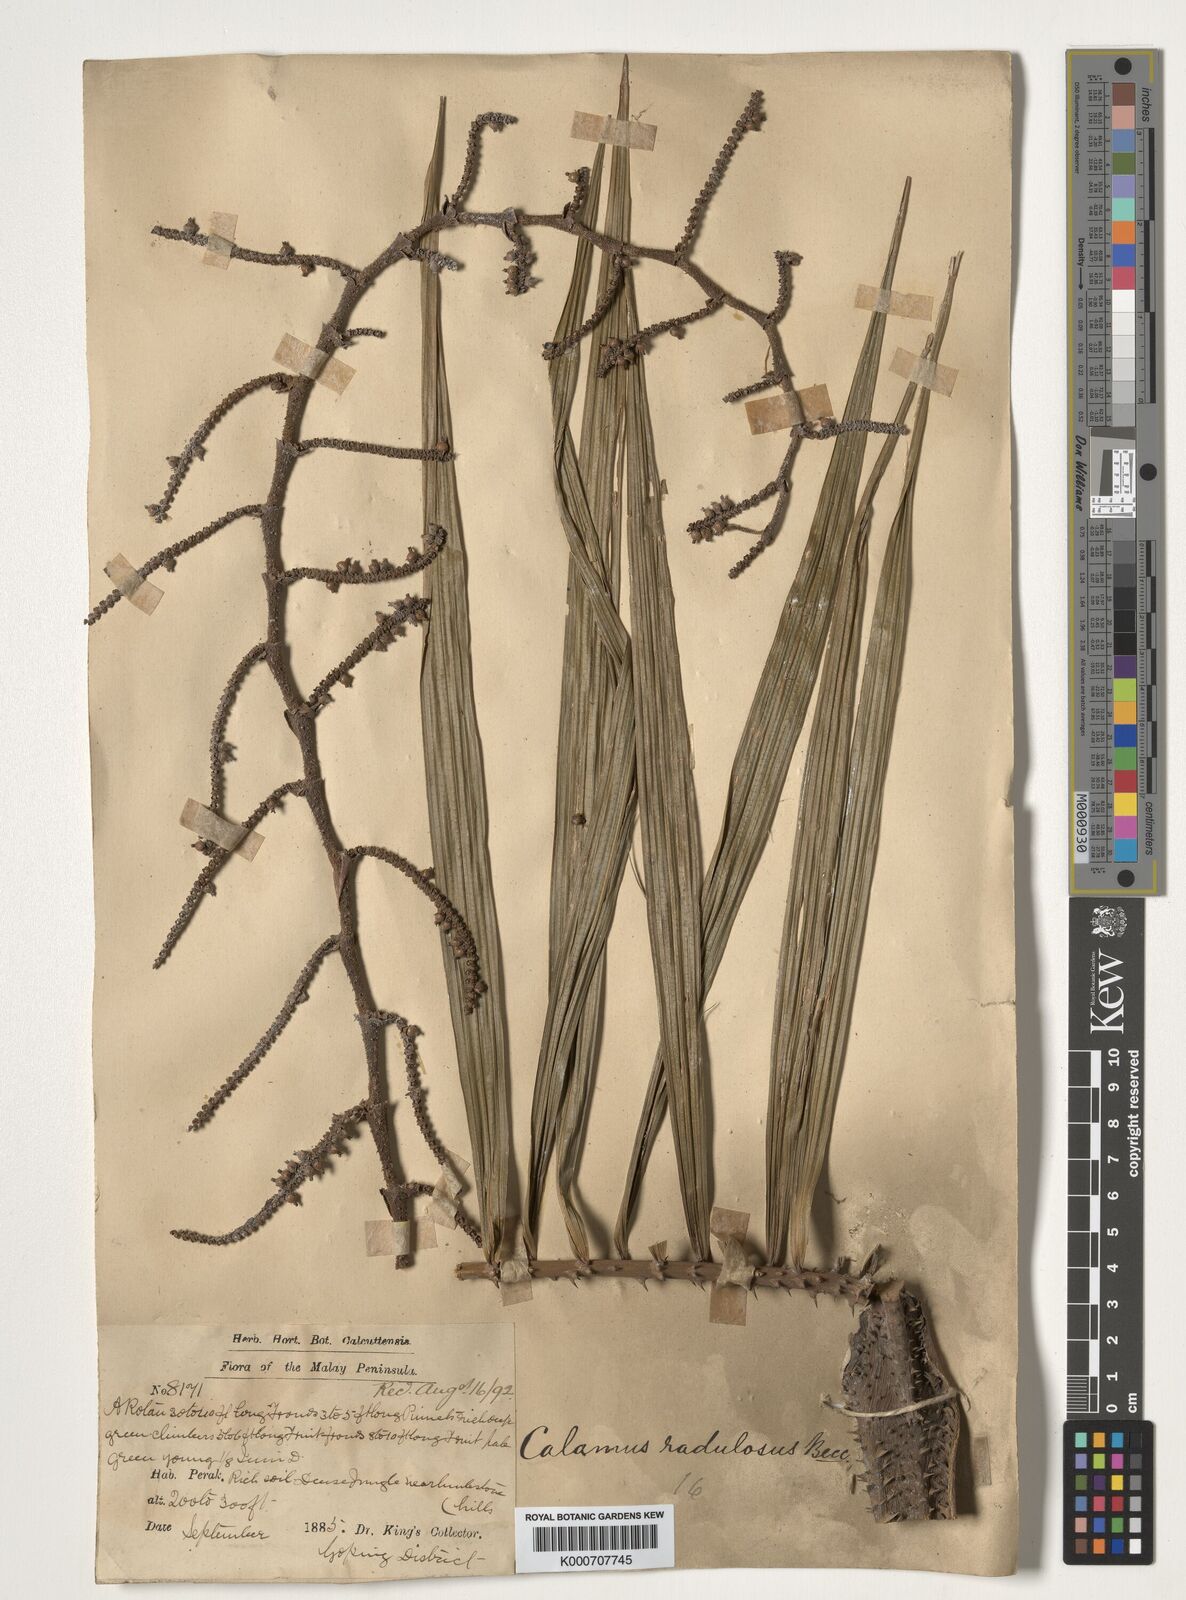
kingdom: Plantae
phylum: Tracheophyta
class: Liliopsida
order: Arecales
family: Arecaceae
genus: Calamus
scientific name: Calamus radulosus
